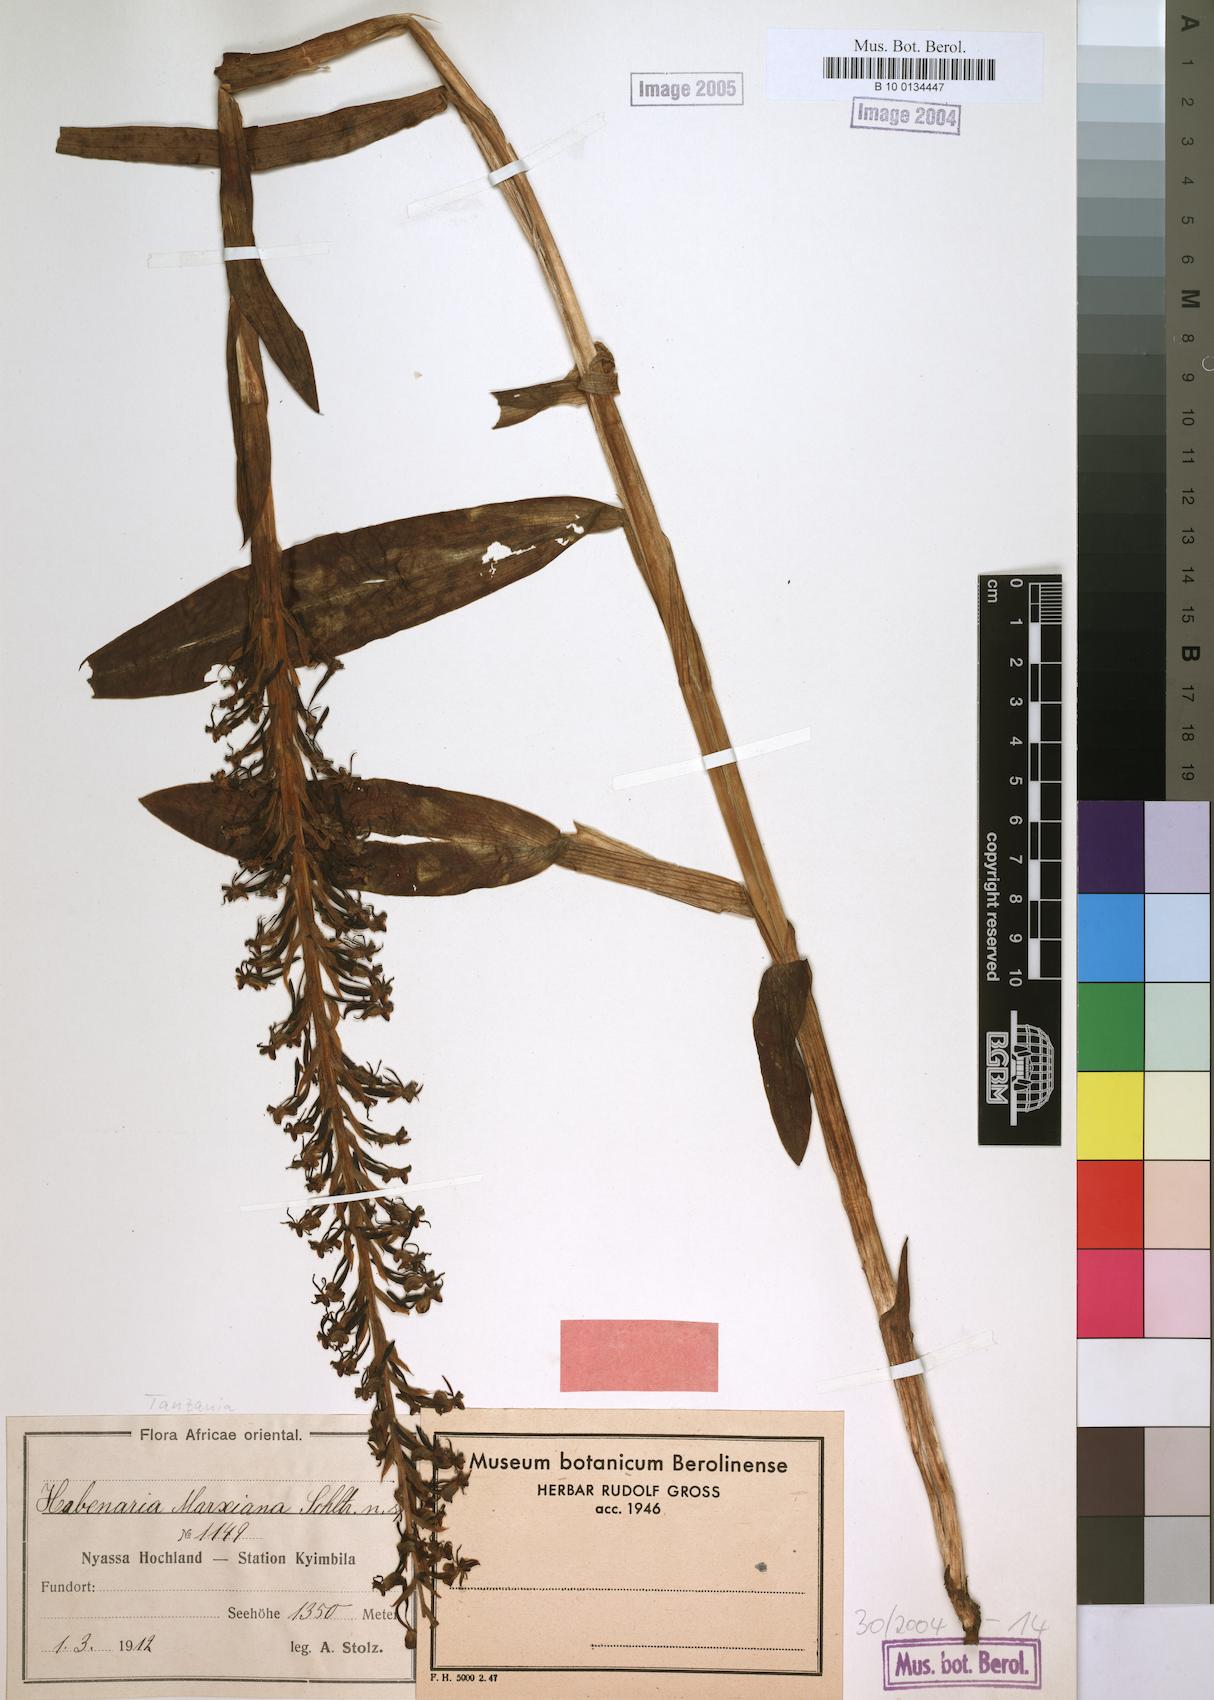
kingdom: Plantae
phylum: Tracheophyta
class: Liliopsida
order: Asparagales
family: Orchidaceae
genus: Habenaria
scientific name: Habenaria isoantha
